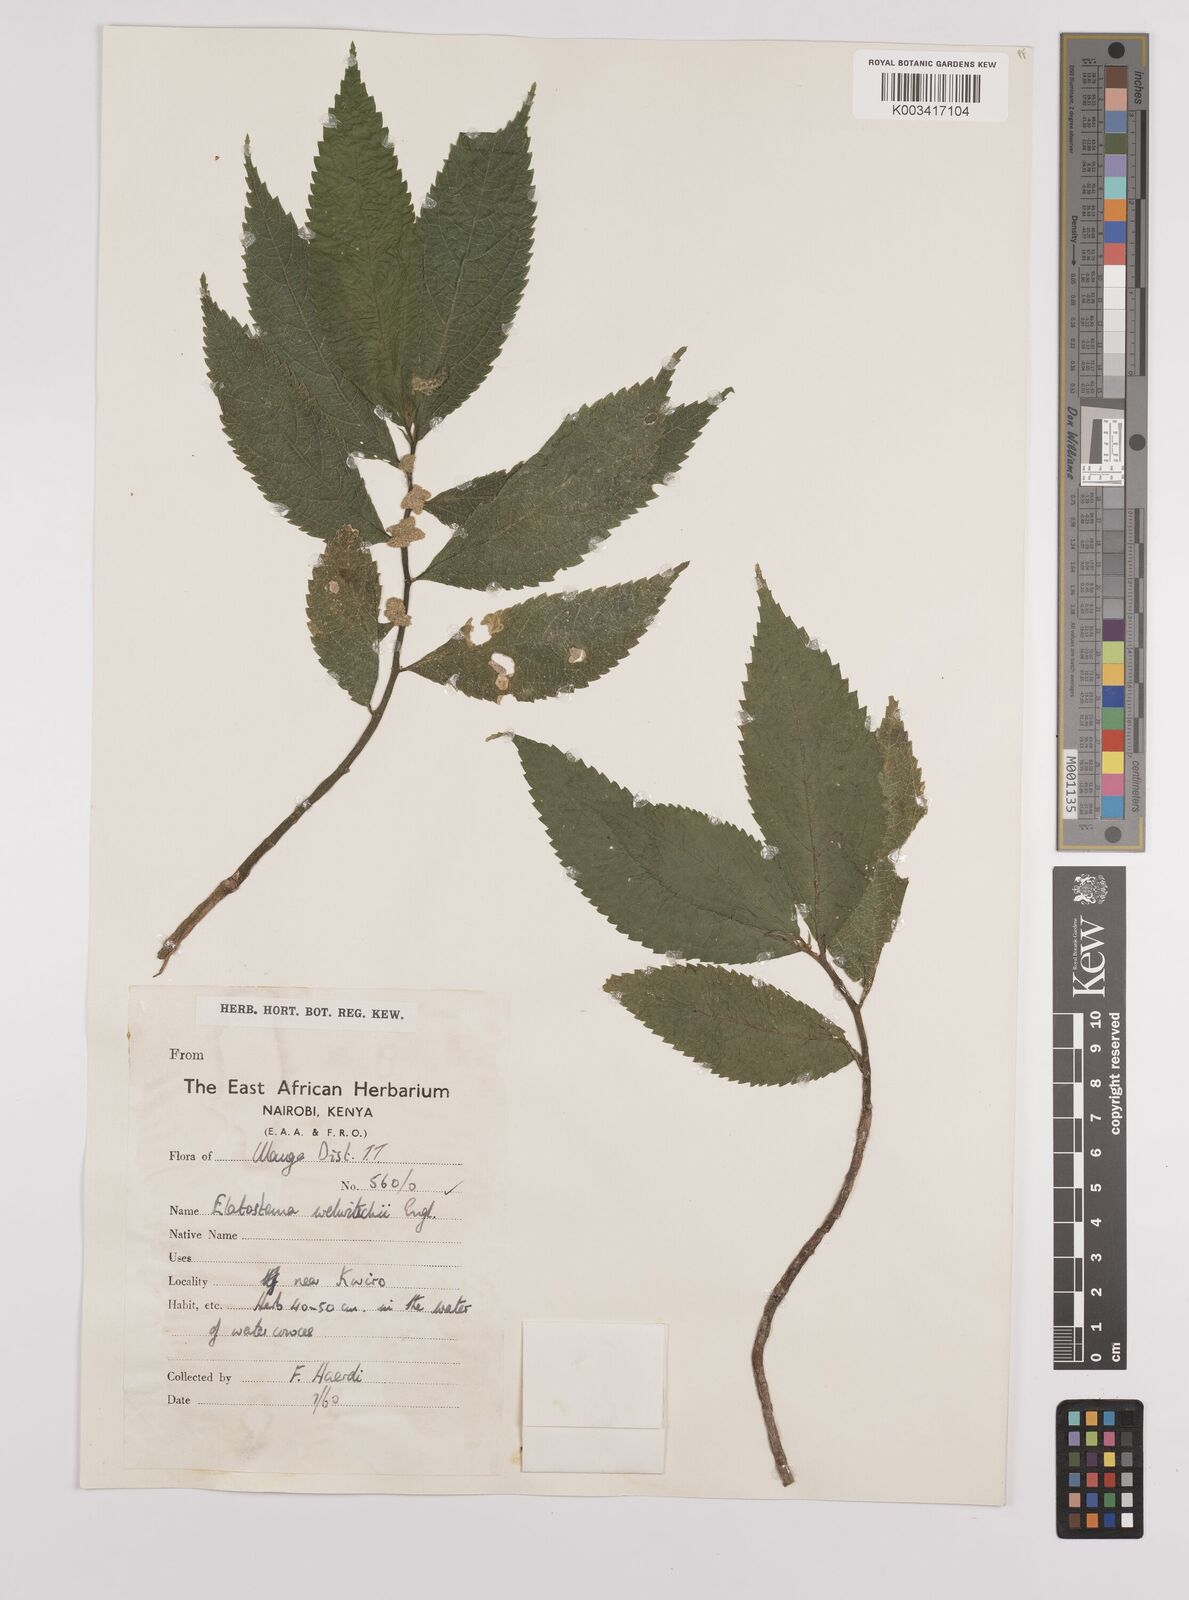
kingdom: Plantae
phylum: Tracheophyta
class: Magnoliopsida
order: Rosales
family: Urticaceae
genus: Elatostema
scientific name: Elatostema welwitschii
